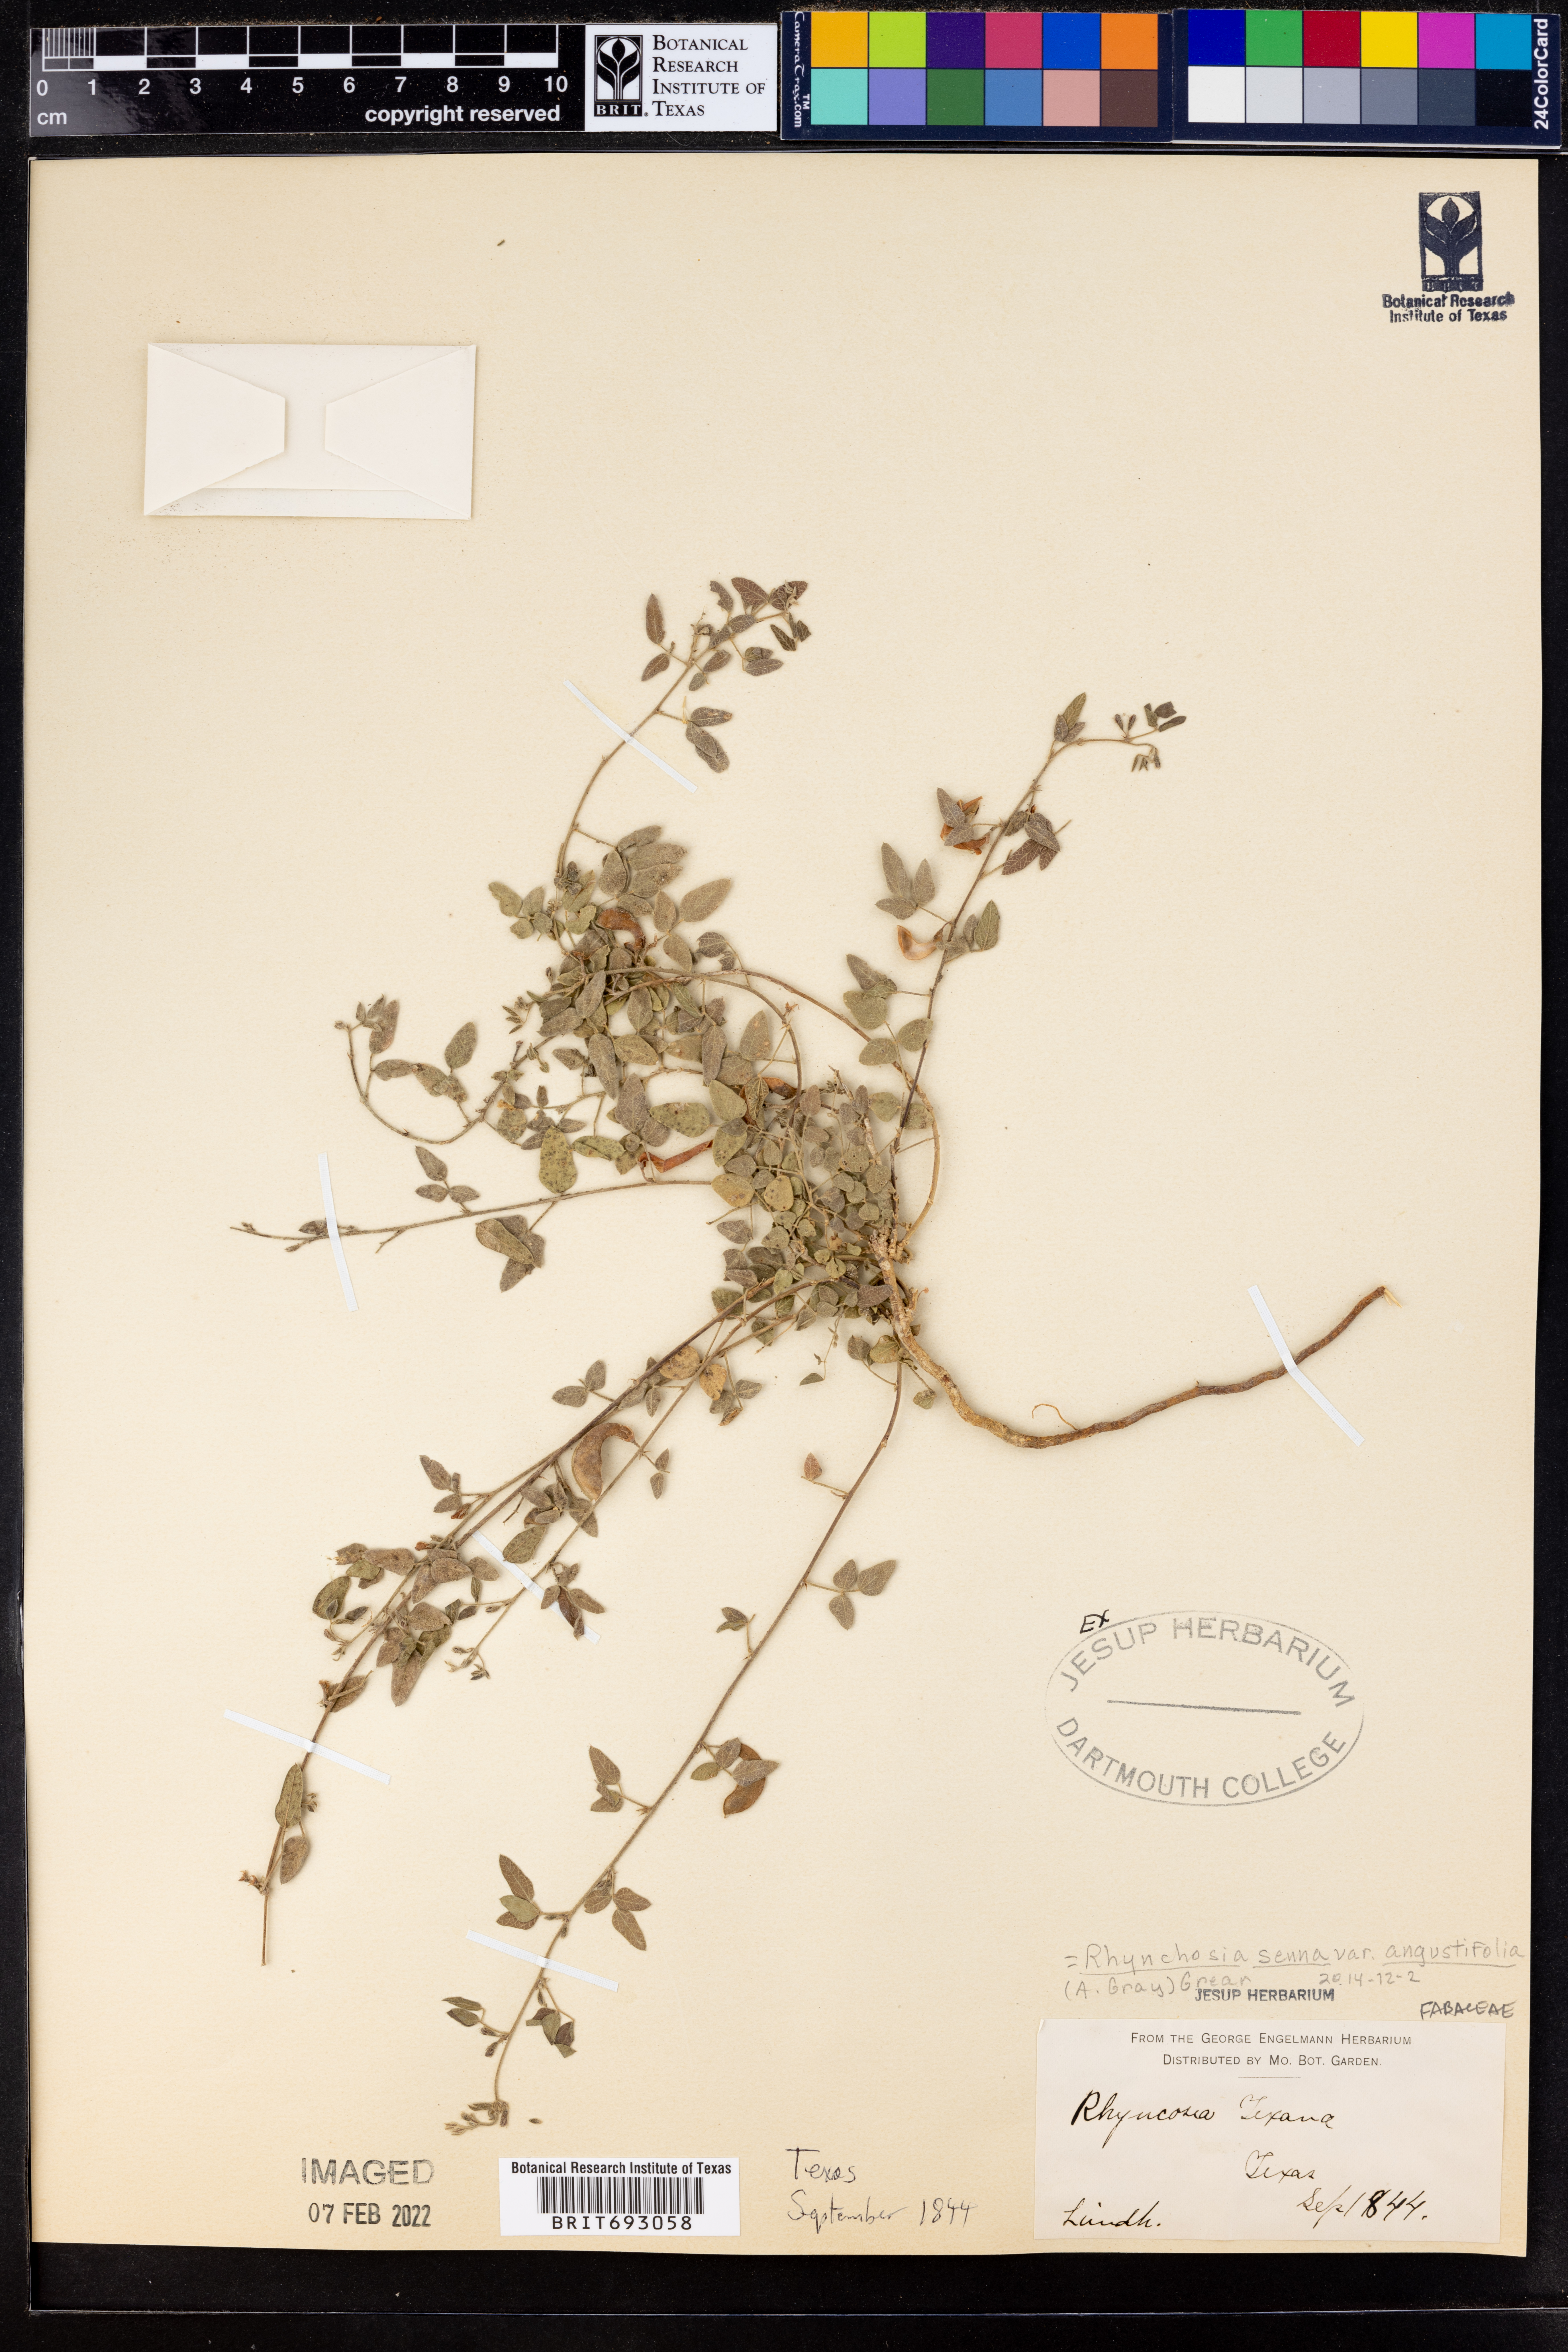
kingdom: Plantae
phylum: Tracheophyta
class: Magnoliopsida
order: Fabales
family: Fabaceae
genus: Rhynchosia
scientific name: Rhynchosia senna
